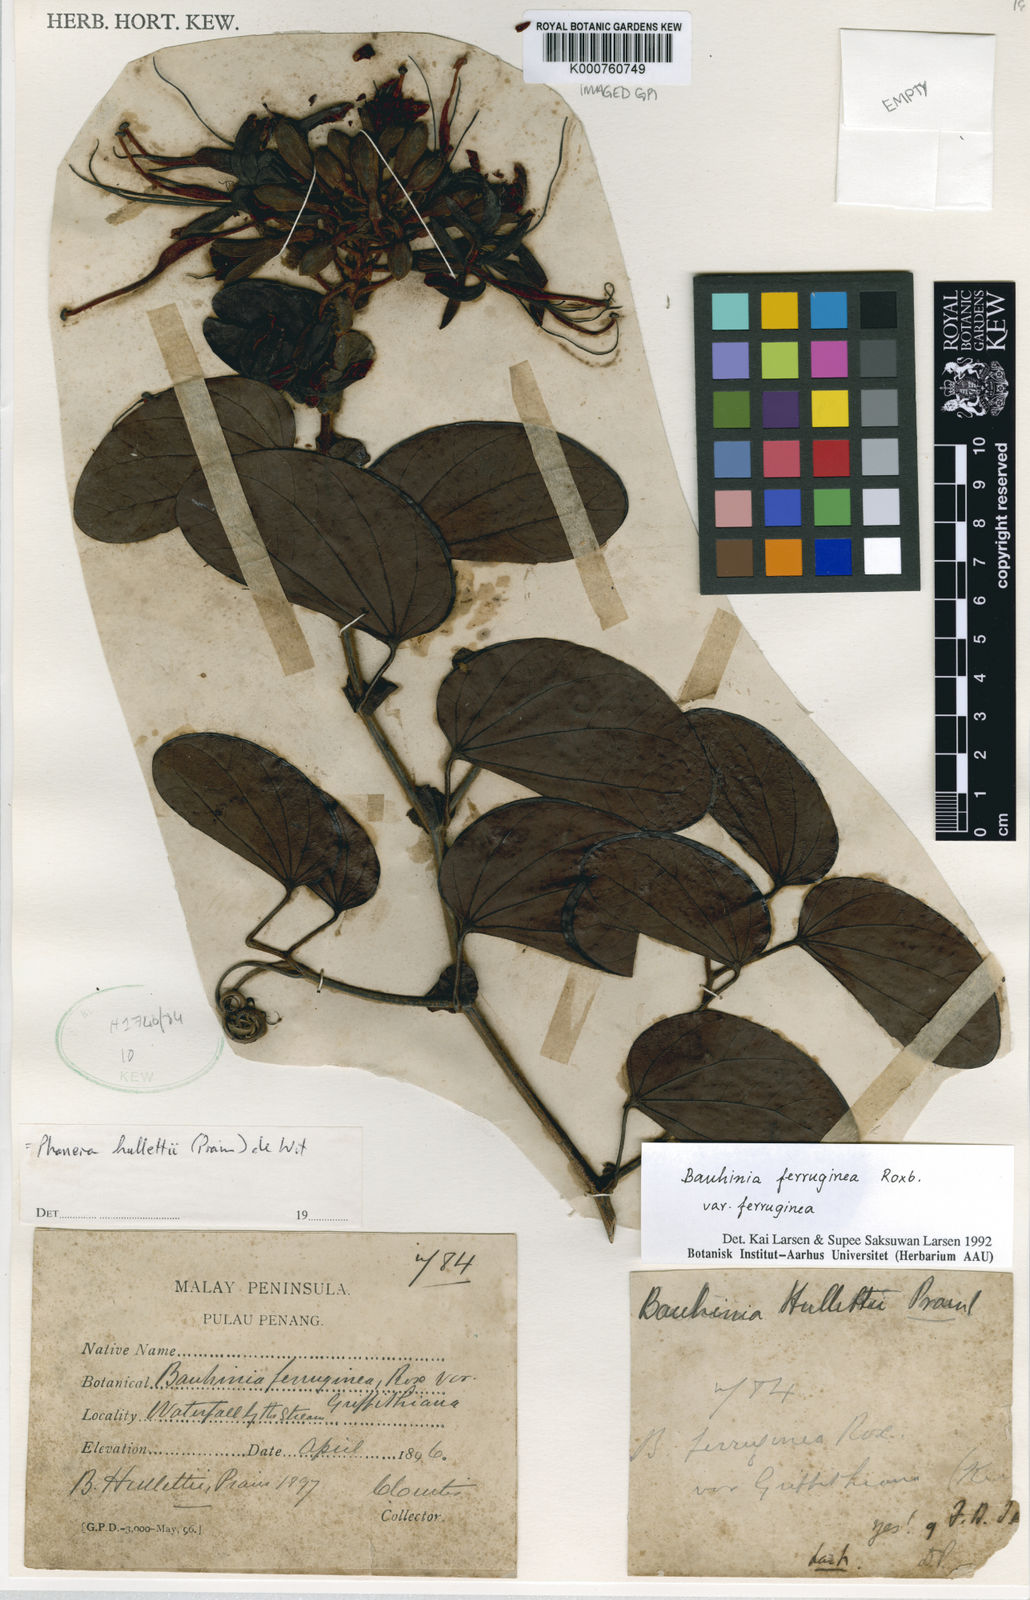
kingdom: Plantae
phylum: Tracheophyta
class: Magnoliopsida
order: Fabales
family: Fabaceae
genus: Phanera
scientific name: Phanera ferruginea
